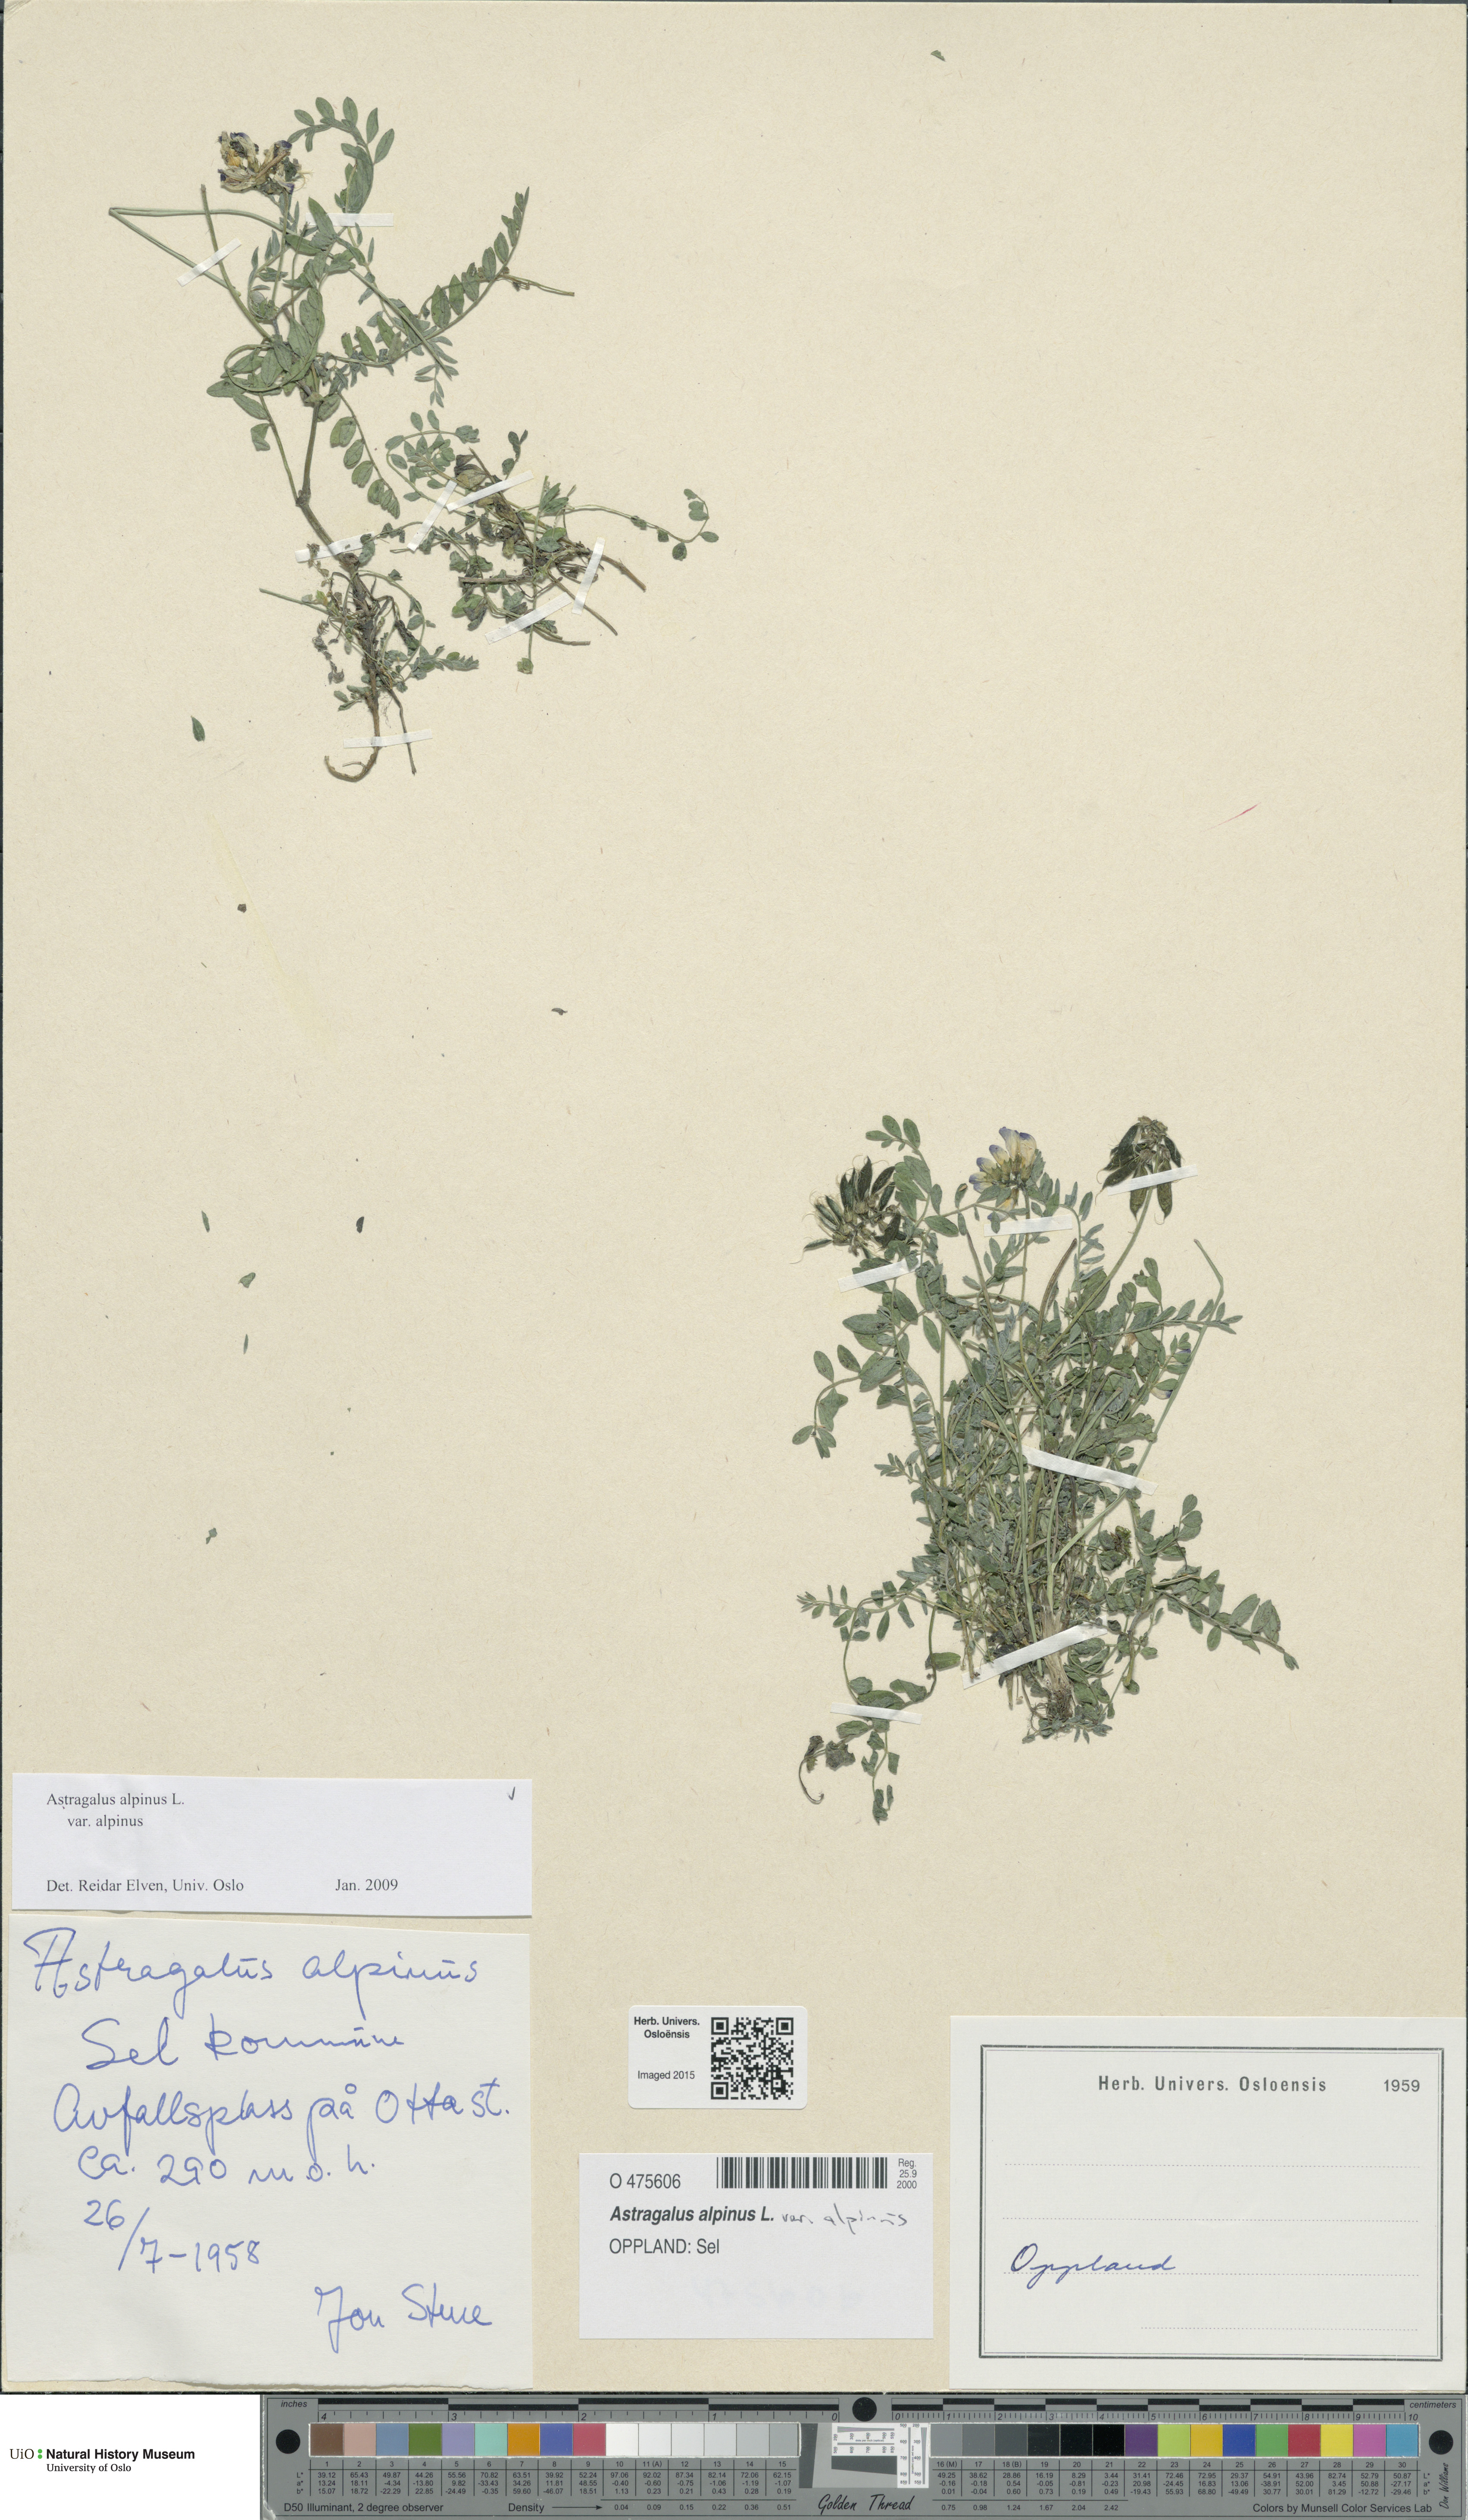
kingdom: Plantae
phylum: Tracheophyta
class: Magnoliopsida
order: Fabales
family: Fabaceae
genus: Astragalus
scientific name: Astragalus alpinus
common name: Alpine milk-vetch
